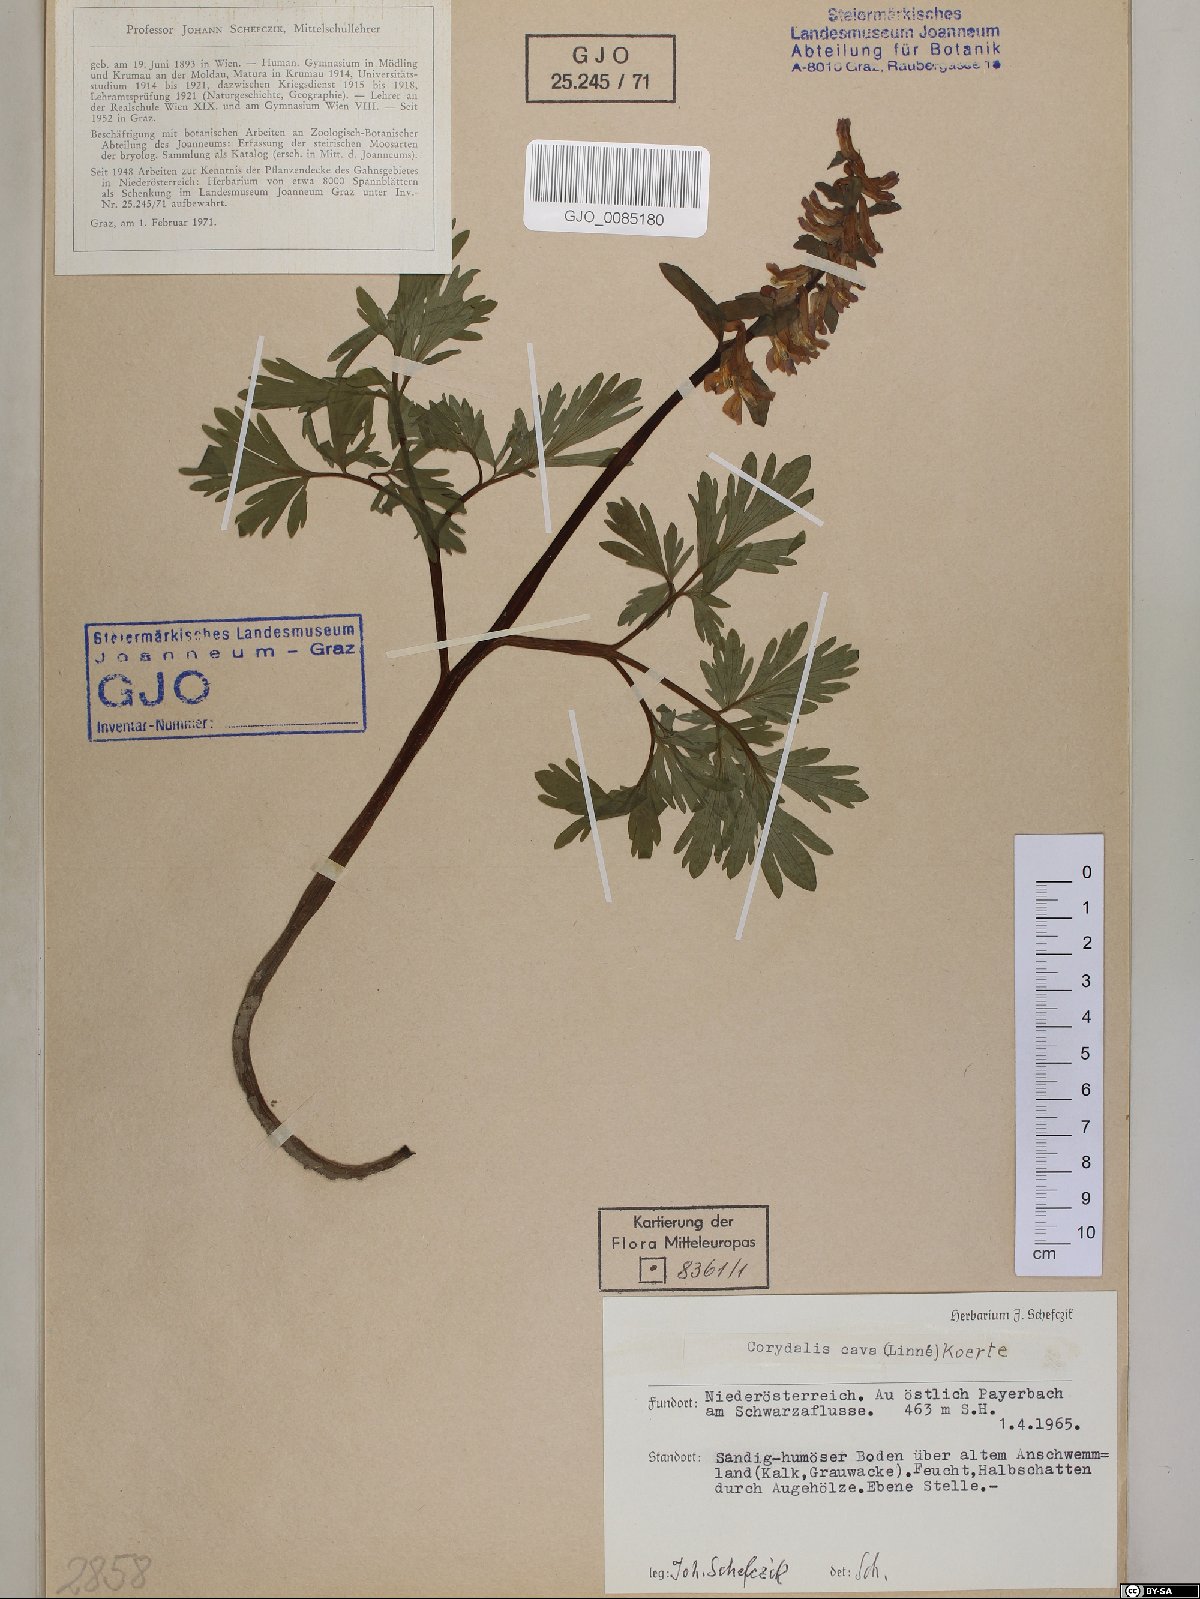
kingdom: Plantae
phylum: Tracheophyta
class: Magnoliopsida
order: Ranunculales
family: Papaveraceae
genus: Corydalis
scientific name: Corydalis cava
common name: Hollowroot
